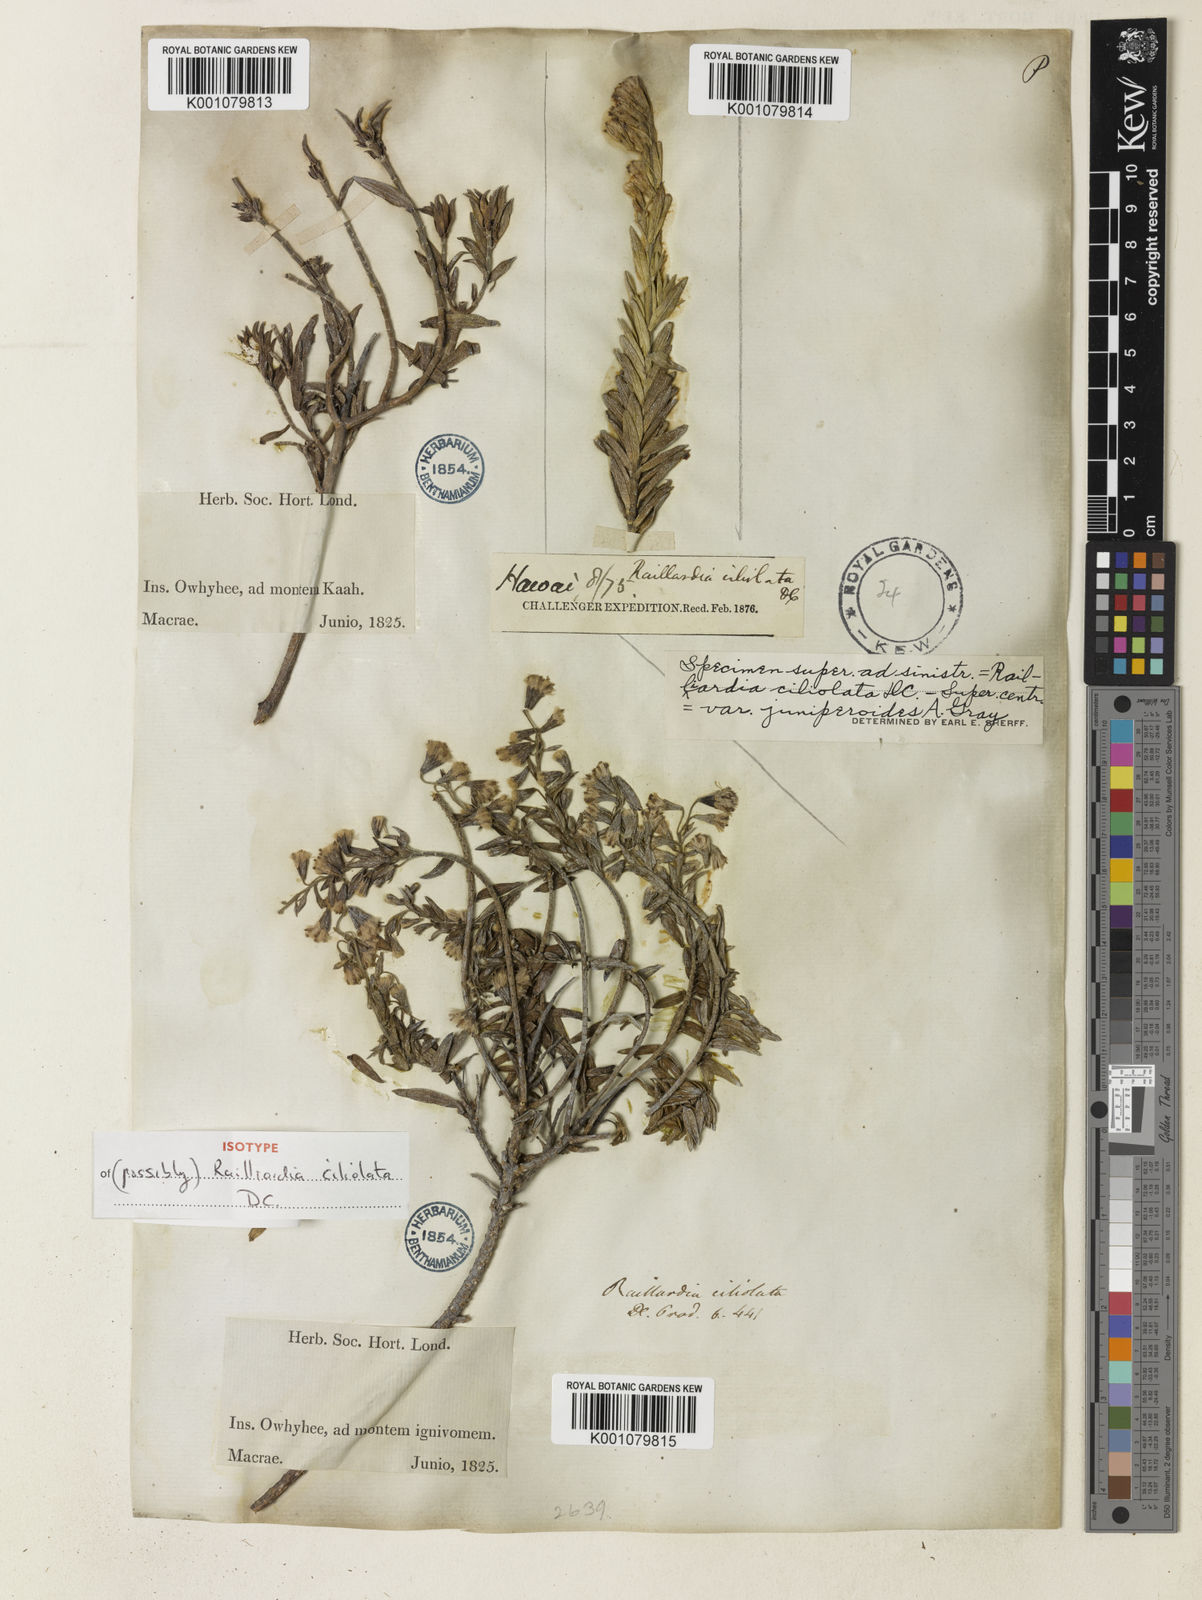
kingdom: Plantae
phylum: Tracheophyta
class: Magnoliopsida
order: Asterales
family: Asteraceae
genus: Dubautia
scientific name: Dubautia ciliolata
